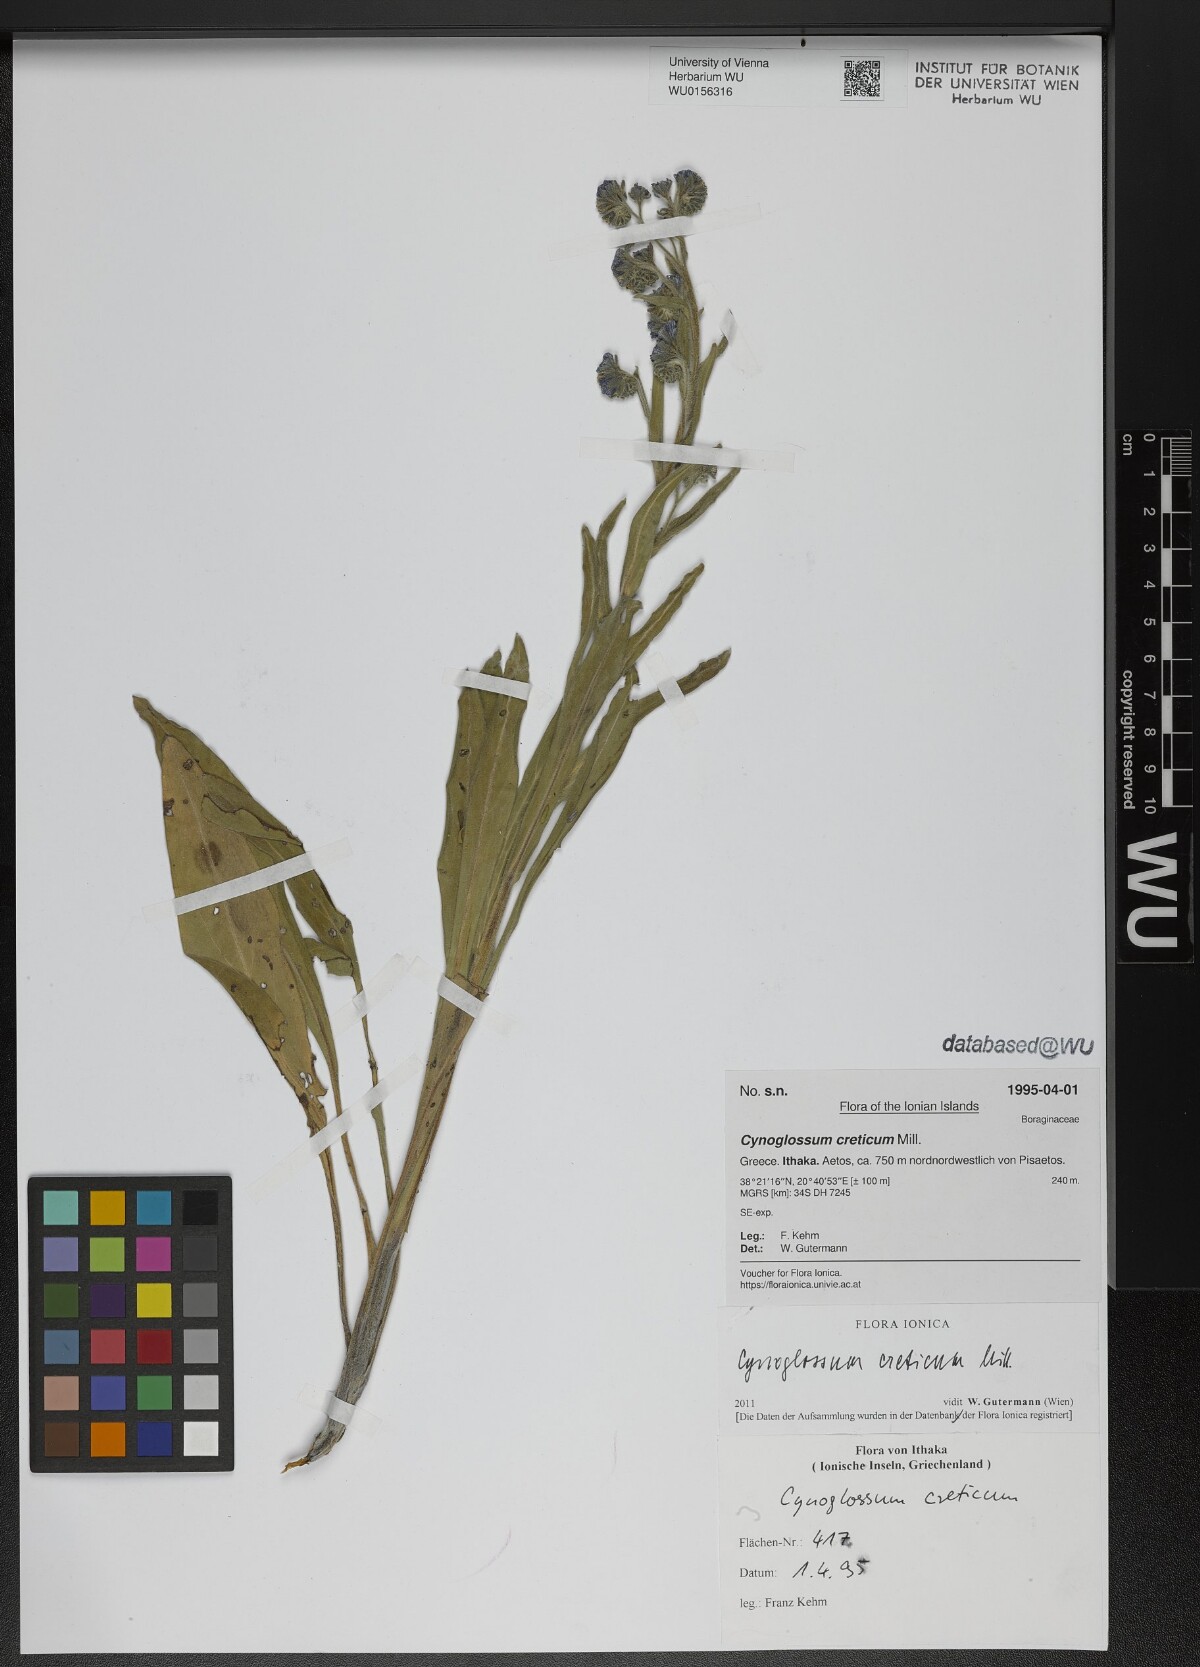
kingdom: Plantae
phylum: Tracheophyta
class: Magnoliopsida
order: Boraginales
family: Boraginaceae
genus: Cynoglossum
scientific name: Cynoglossum creticum
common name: Blue hound's tongue
